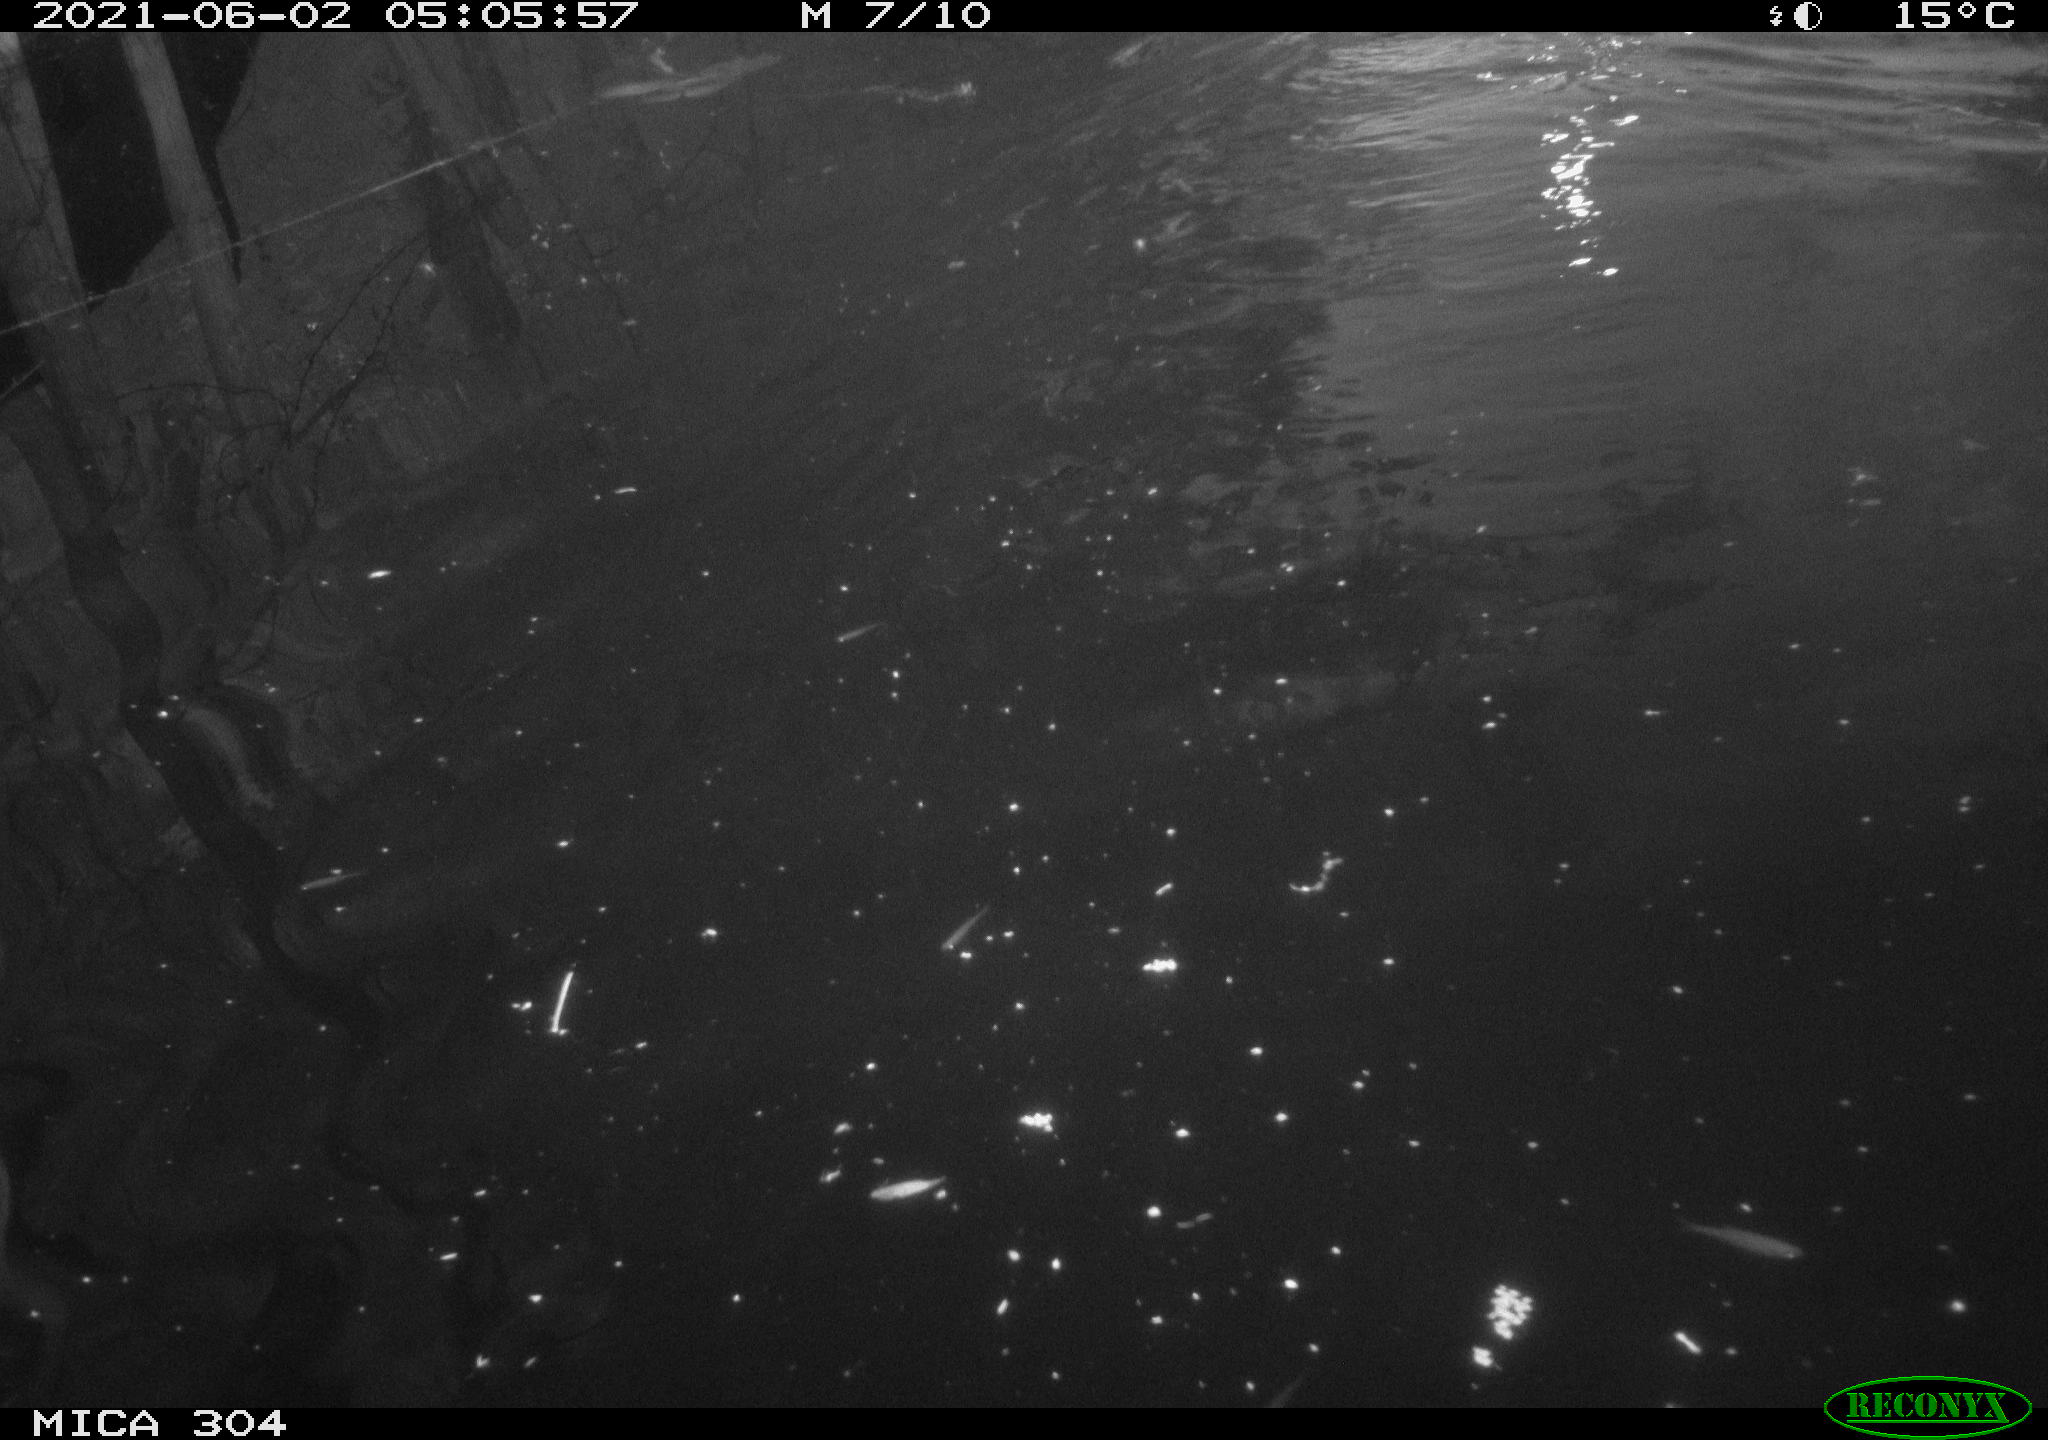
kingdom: Animalia
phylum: Chordata
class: Aves
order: Anseriformes
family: Anatidae
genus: Anas
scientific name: Anas platyrhynchos
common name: Mallard
